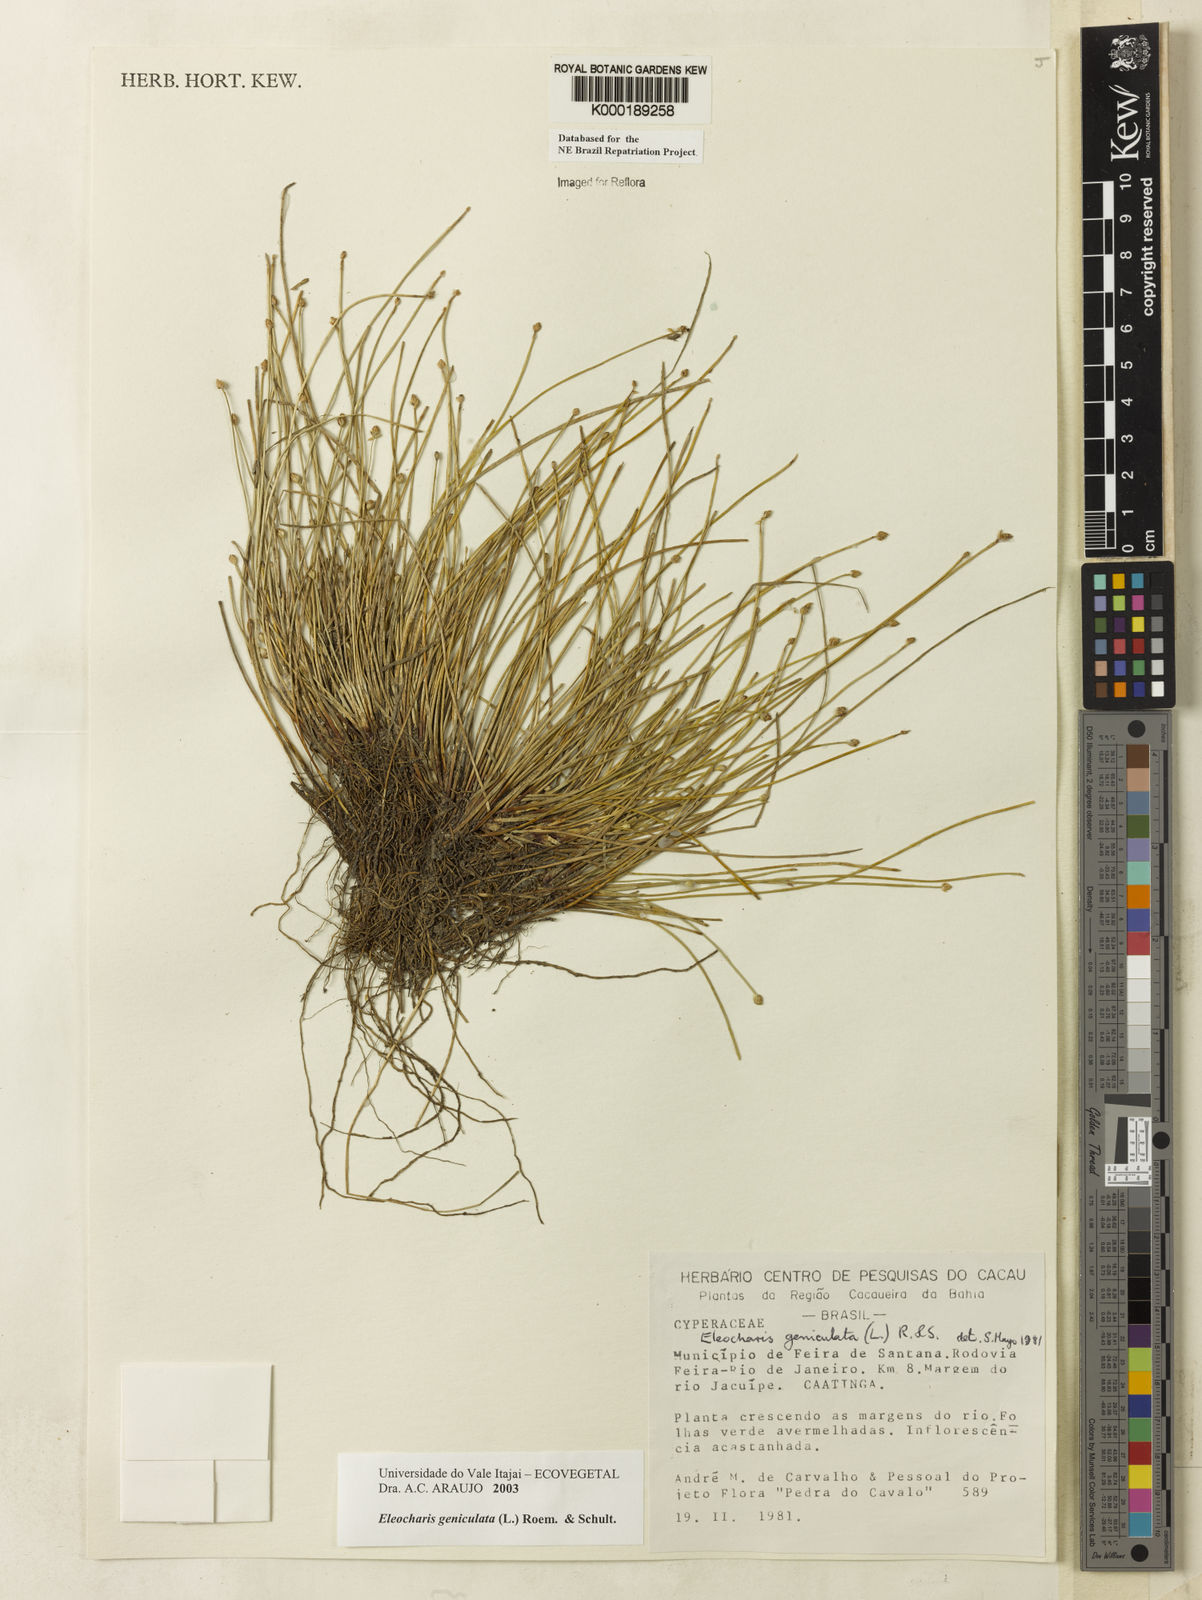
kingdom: Plantae
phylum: Tracheophyta
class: Liliopsida
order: Poales
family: Cyperaceae
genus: Eleocharis
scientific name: Eleocharis geniculata
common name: Canada spikesedge
